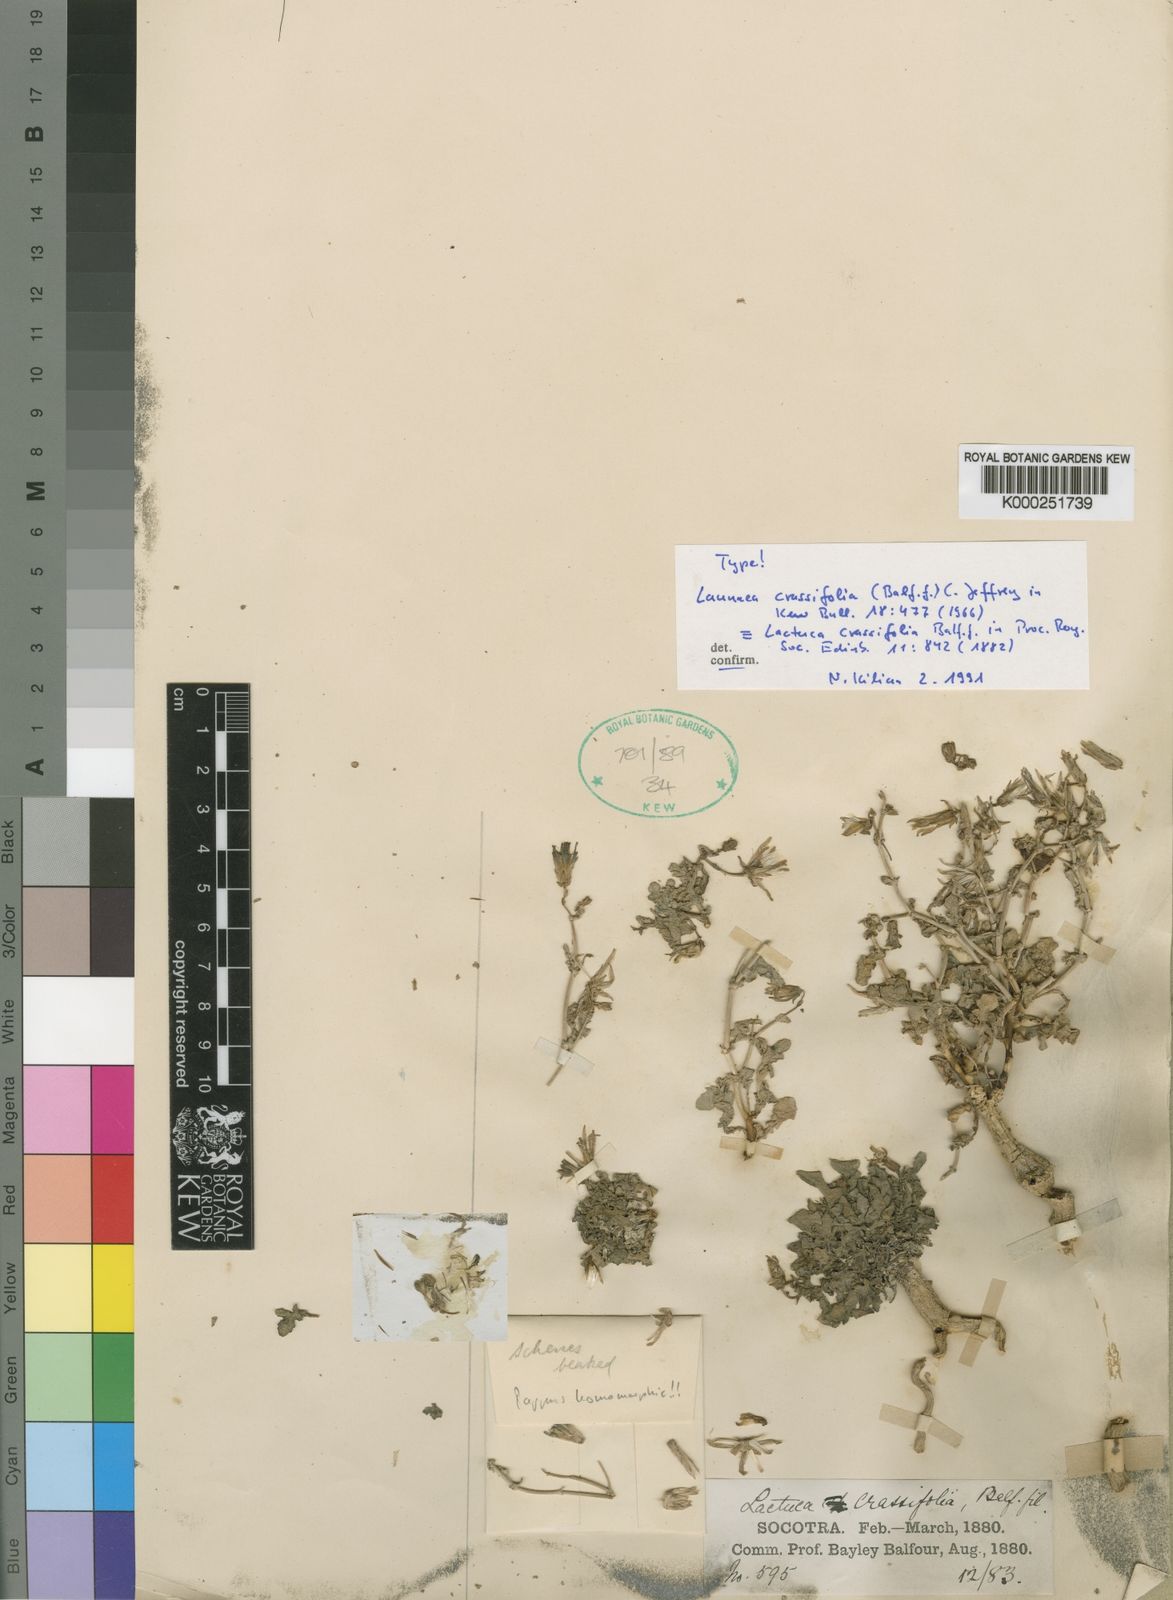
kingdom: Plantae
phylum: Tracheophyta
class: Magnoliopsida
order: Asterales
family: Asteraceae
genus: Launaea
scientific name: Launaea crassifolia
